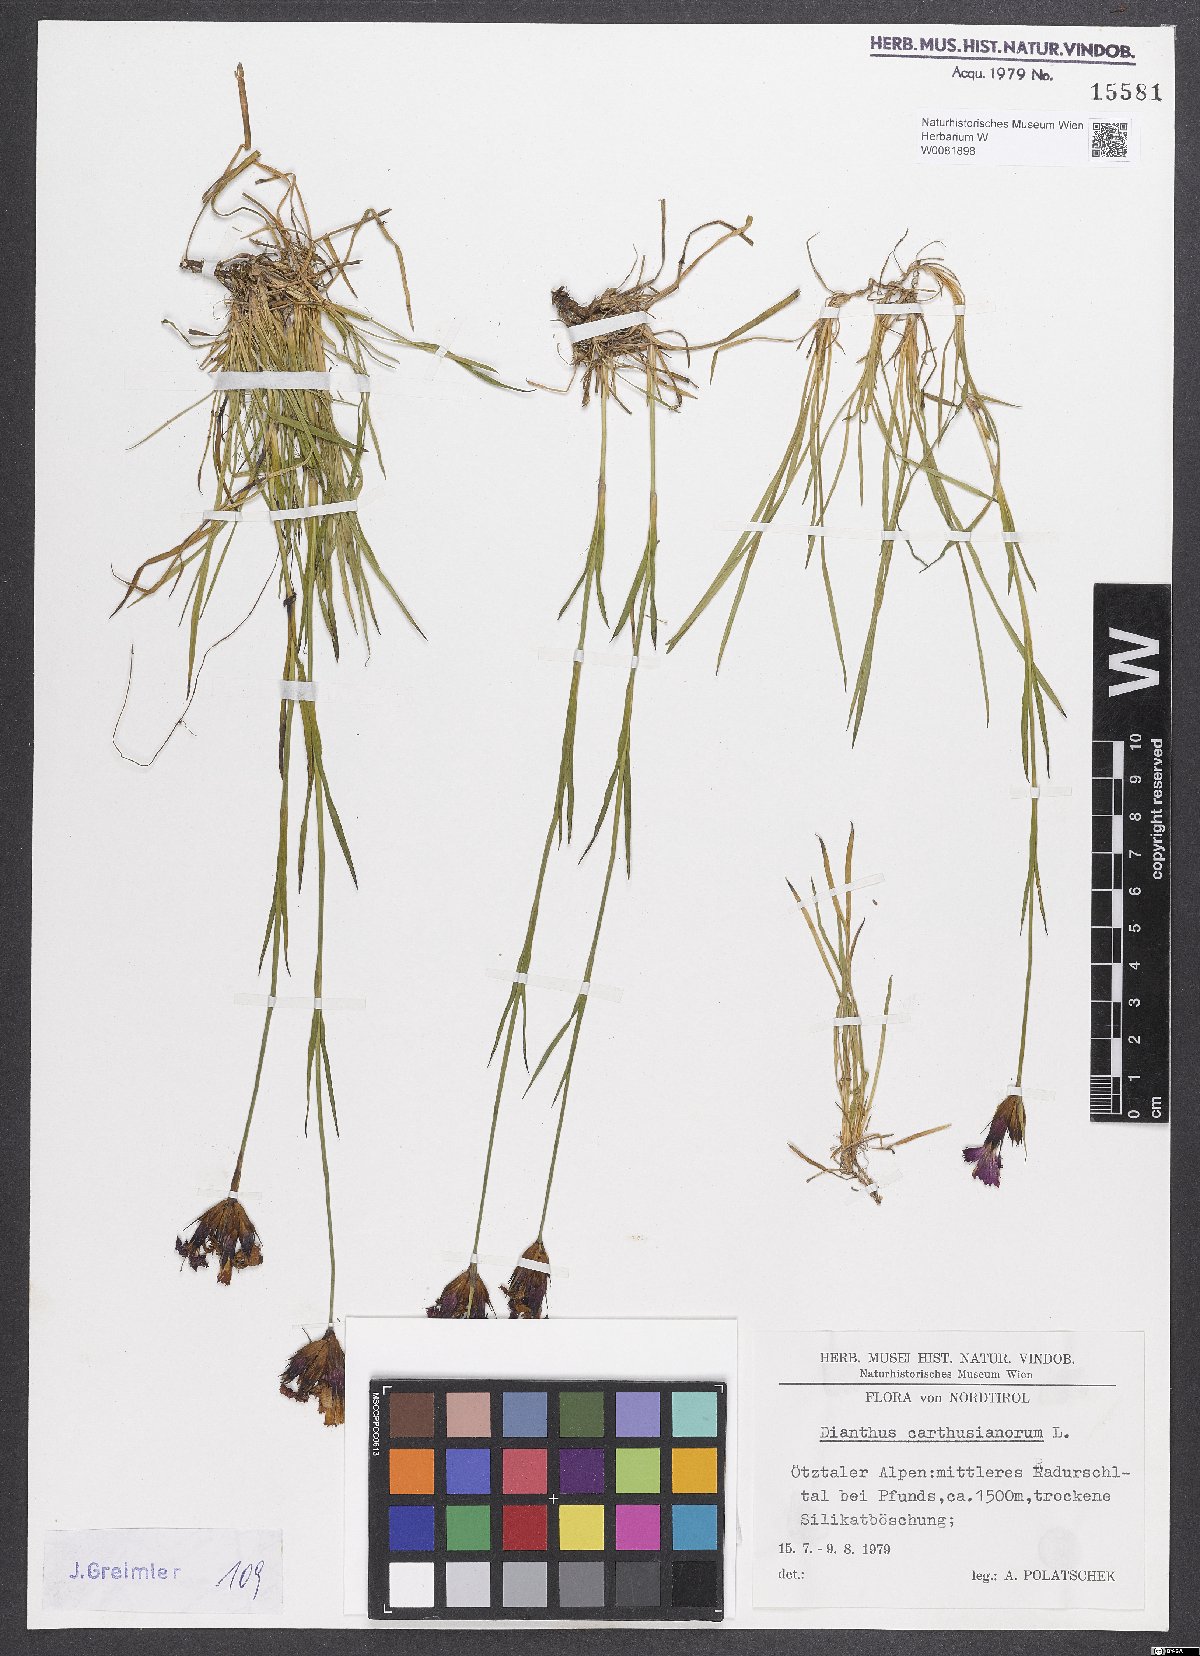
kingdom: Plantae
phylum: Tracheophyta
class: Magnoliopsida
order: Caryophyllales
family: Caryophyllaceae
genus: Dianthus
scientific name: Dianthus carthusianorum
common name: Carthusian pink
